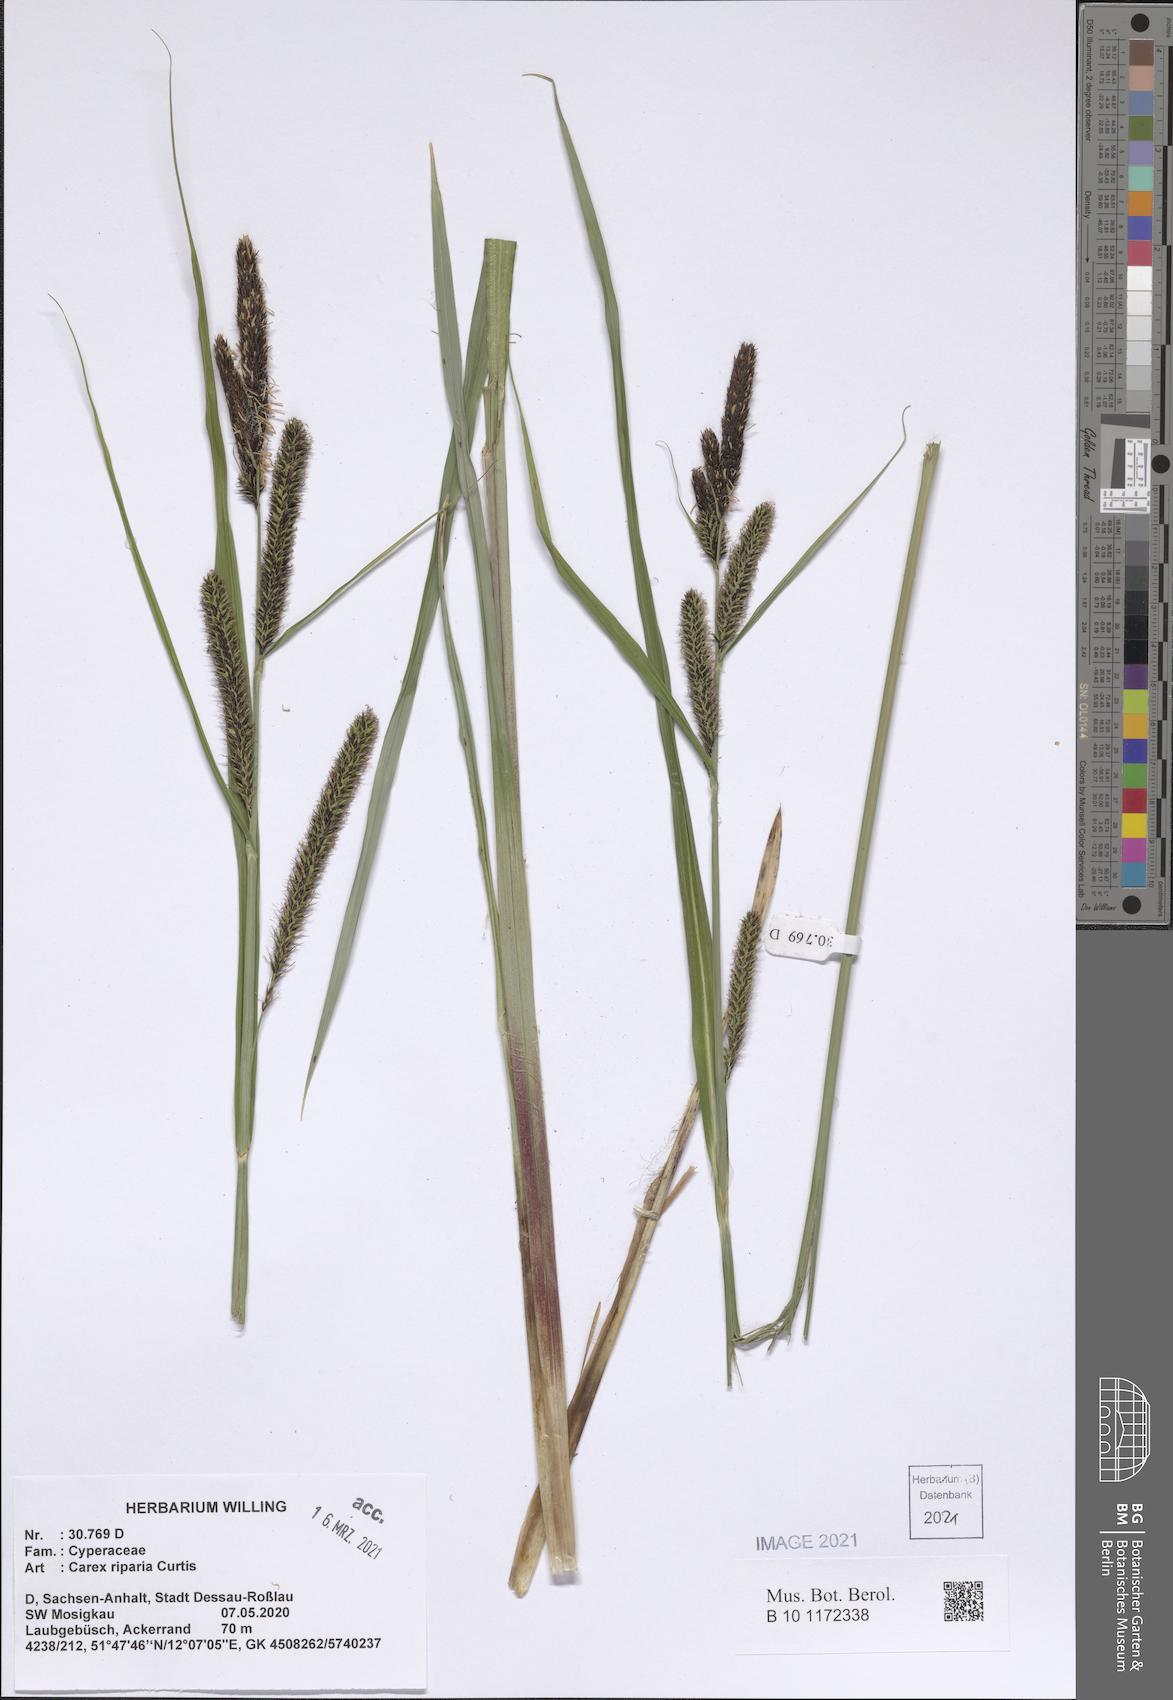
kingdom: Plantae
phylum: Tracheophyta
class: Liliopsida
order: Poales
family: Cyperaceae
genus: Carex
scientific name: Carex riparia
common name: Greater pond-sedge
